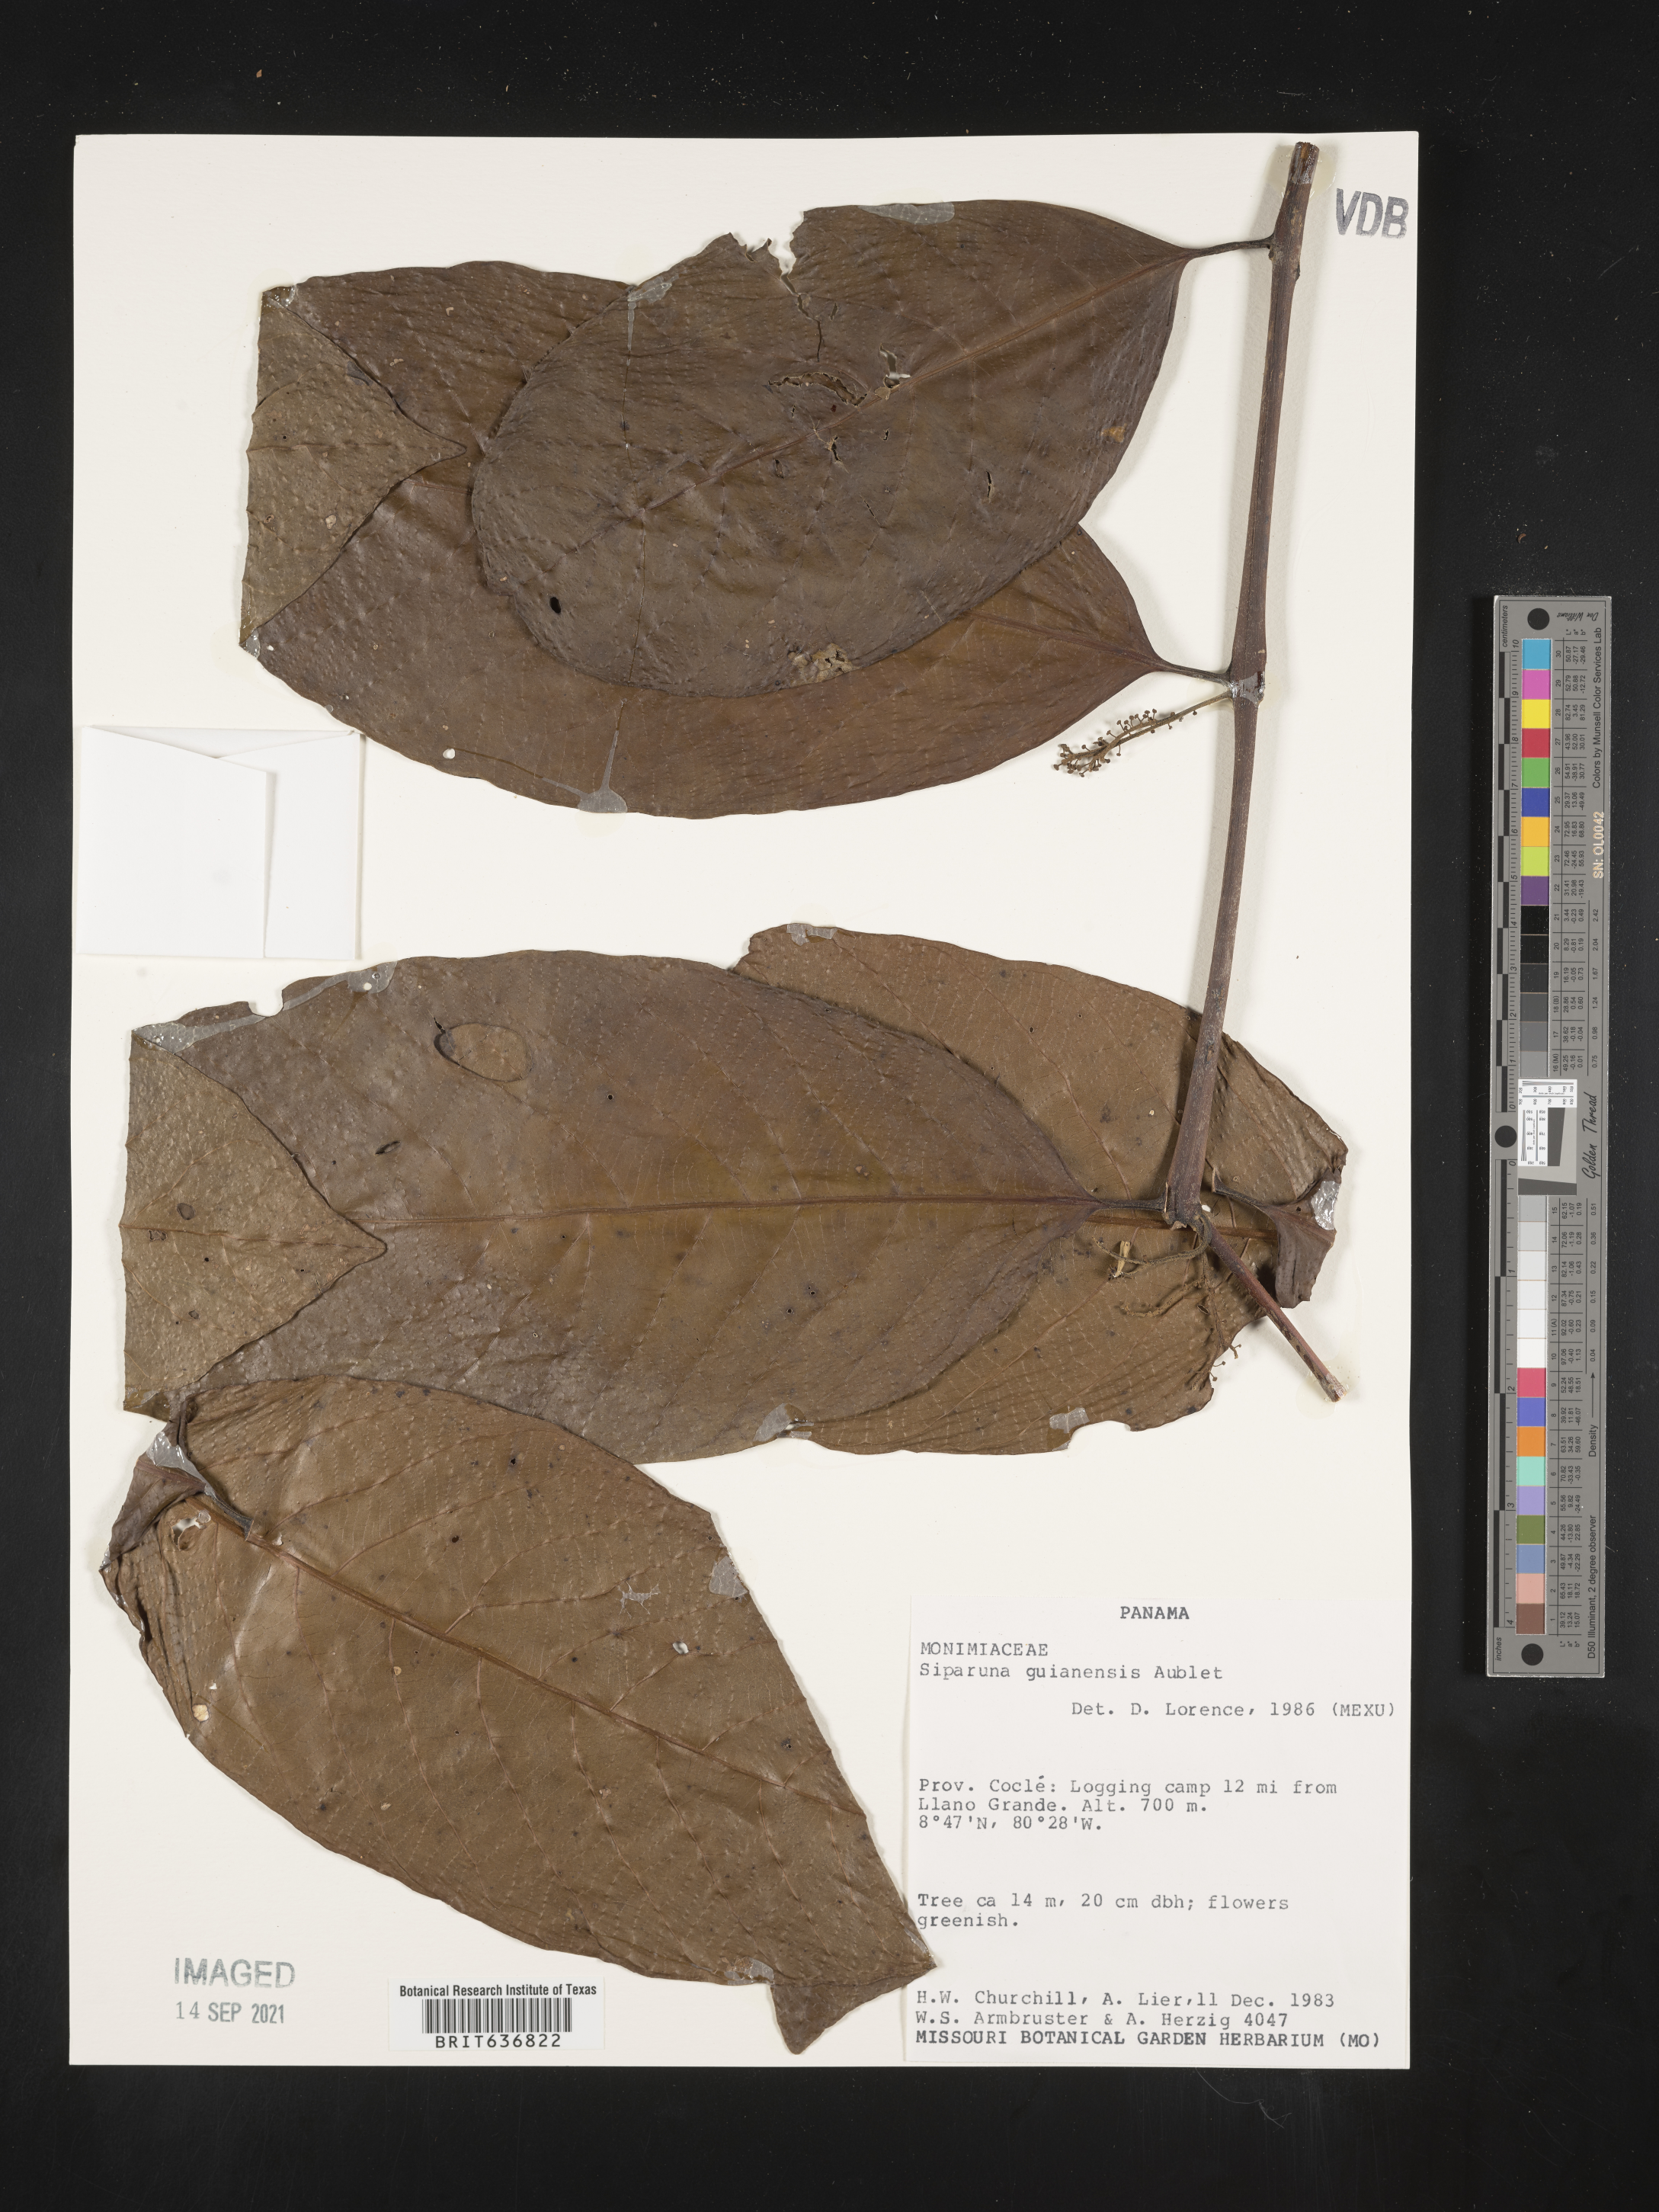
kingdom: Plantae
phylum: Tracheophyta
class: Magnoliopsida
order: Laurales
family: Siparunaceae
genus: Siparuna
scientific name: Siparuna
